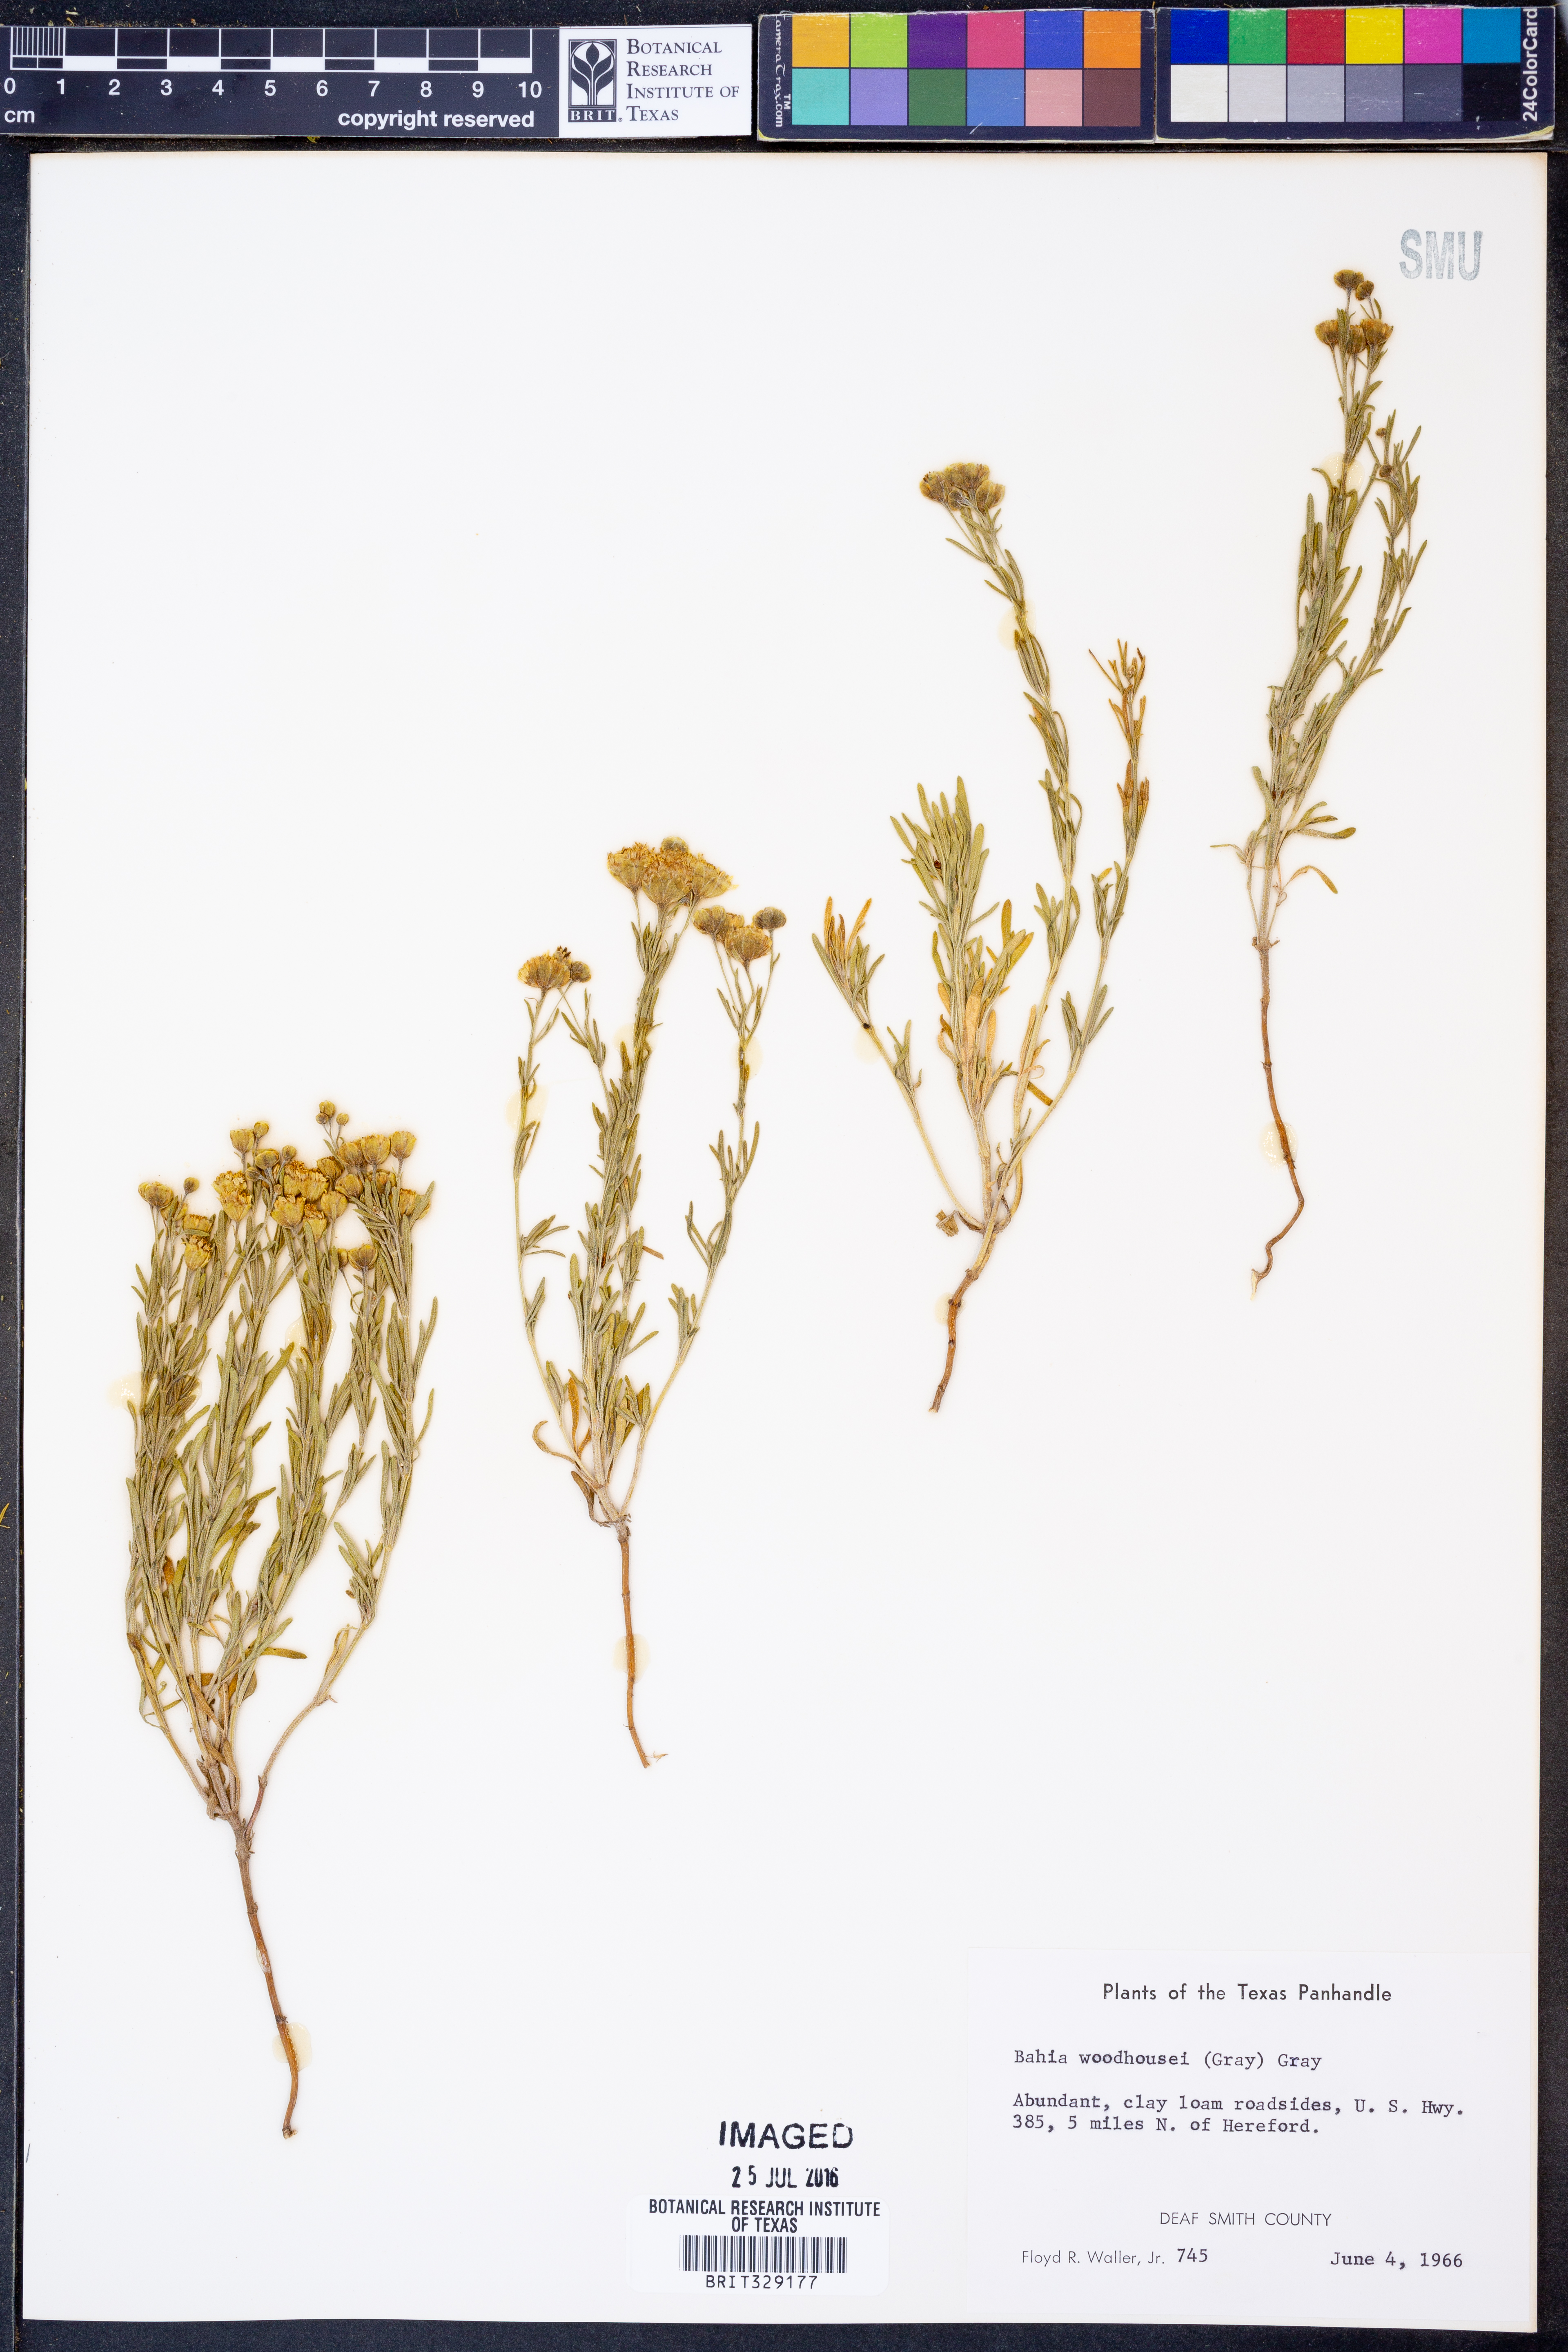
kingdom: Plantae
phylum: Tracheophyta
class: Magnoliopsida
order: Asterales
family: Asteraceae
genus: Picradeniopsis
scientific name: Picradeniopsis woodhousei
